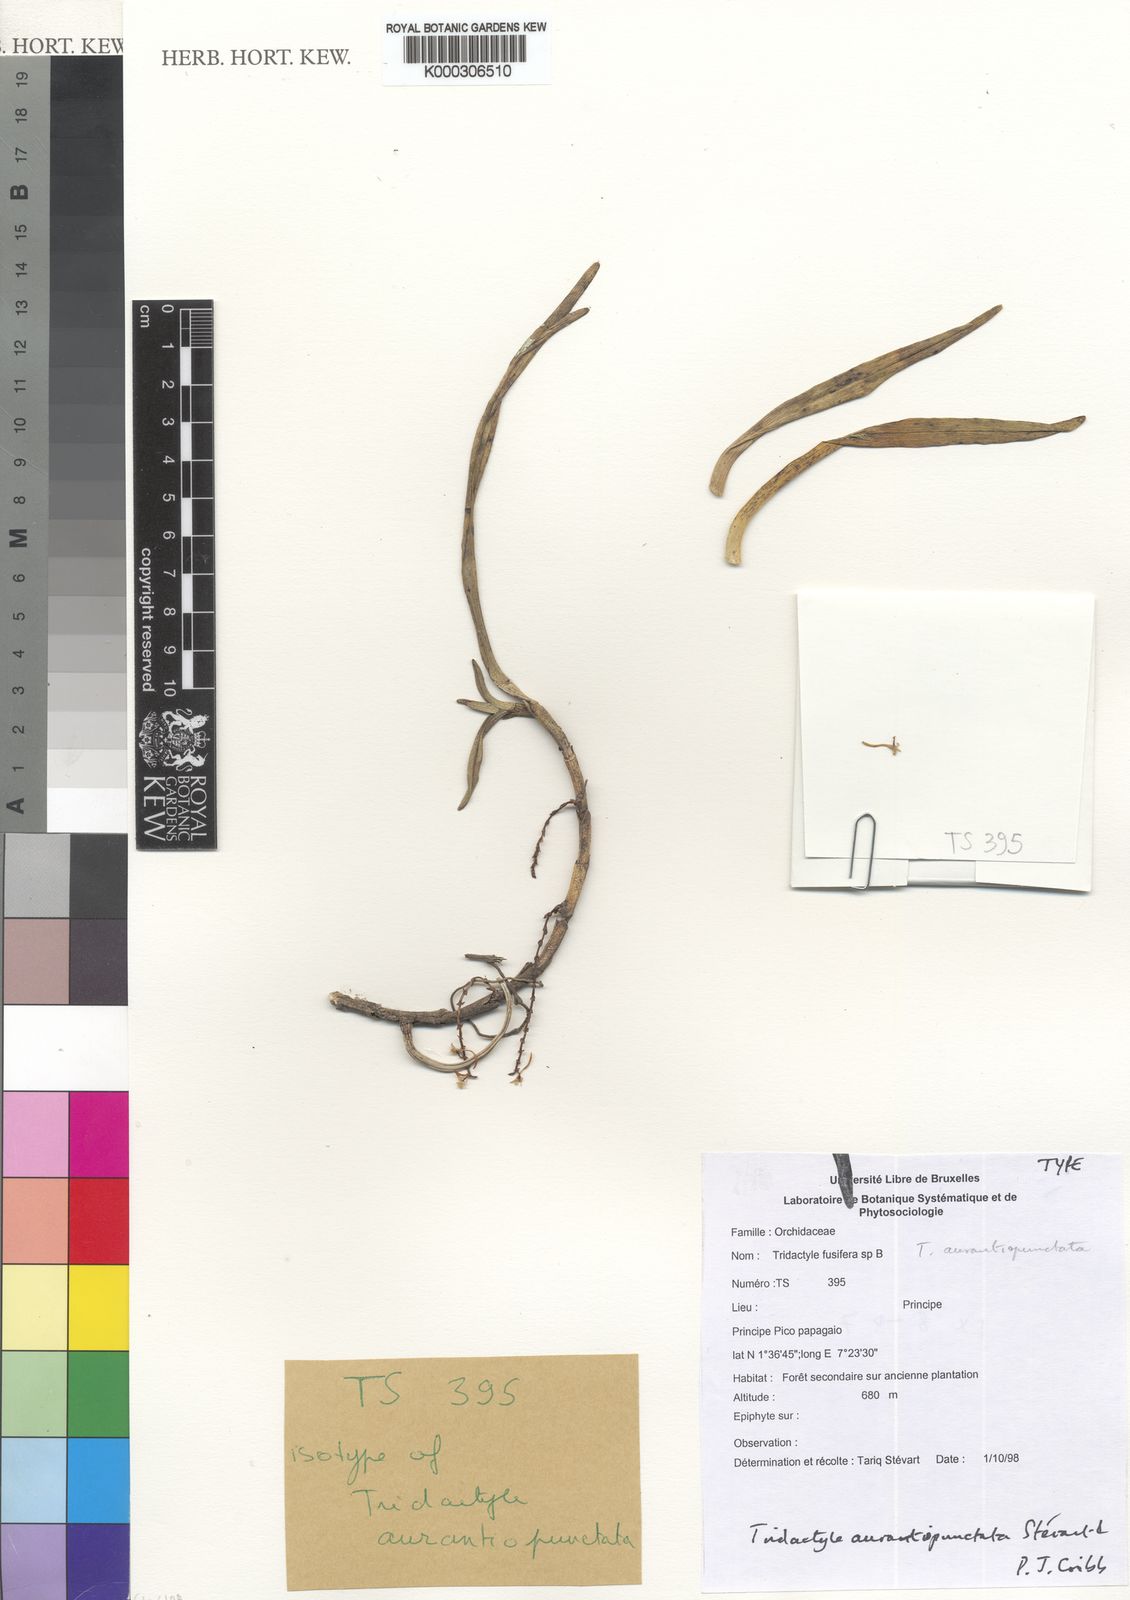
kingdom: Plantae
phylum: Tracheophyta
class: Liliopsida
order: Asparagales
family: Orchidaceae
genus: Tridactyle
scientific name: Tridactyle
